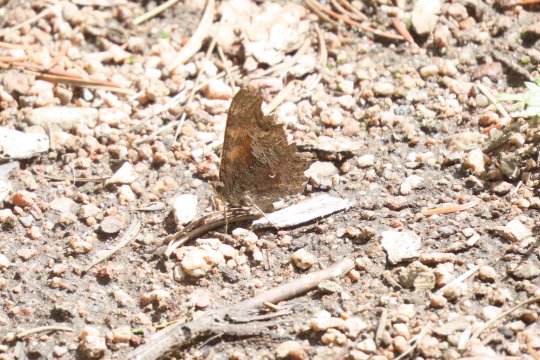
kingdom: Animalia
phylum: Arthropoda
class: Insecta
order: Lepidoptera
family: Nymphalidae
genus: Polygonia
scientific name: Polygonia gracilis
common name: Hoary Comma
